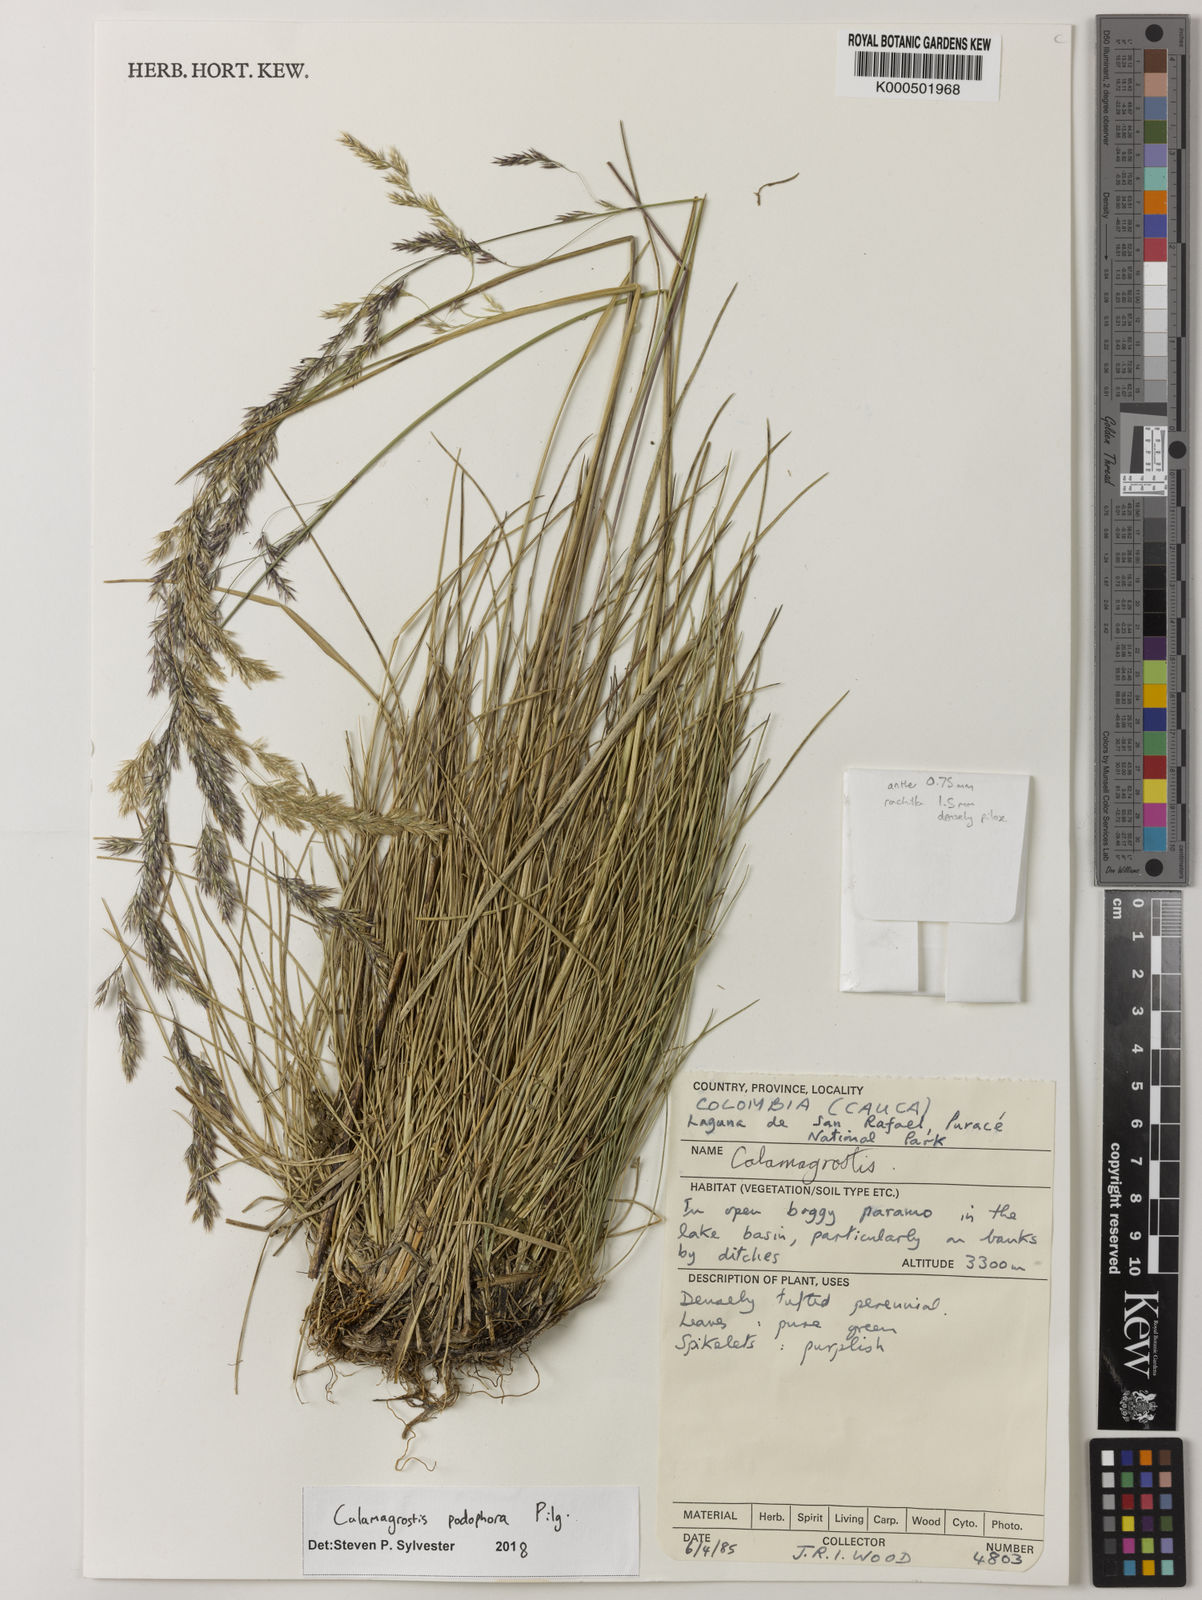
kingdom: Plantae
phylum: Tracheophyta
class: Liliopsida
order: Poales
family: Poaceae
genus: Deschampsia
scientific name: Deschampsia podophora
